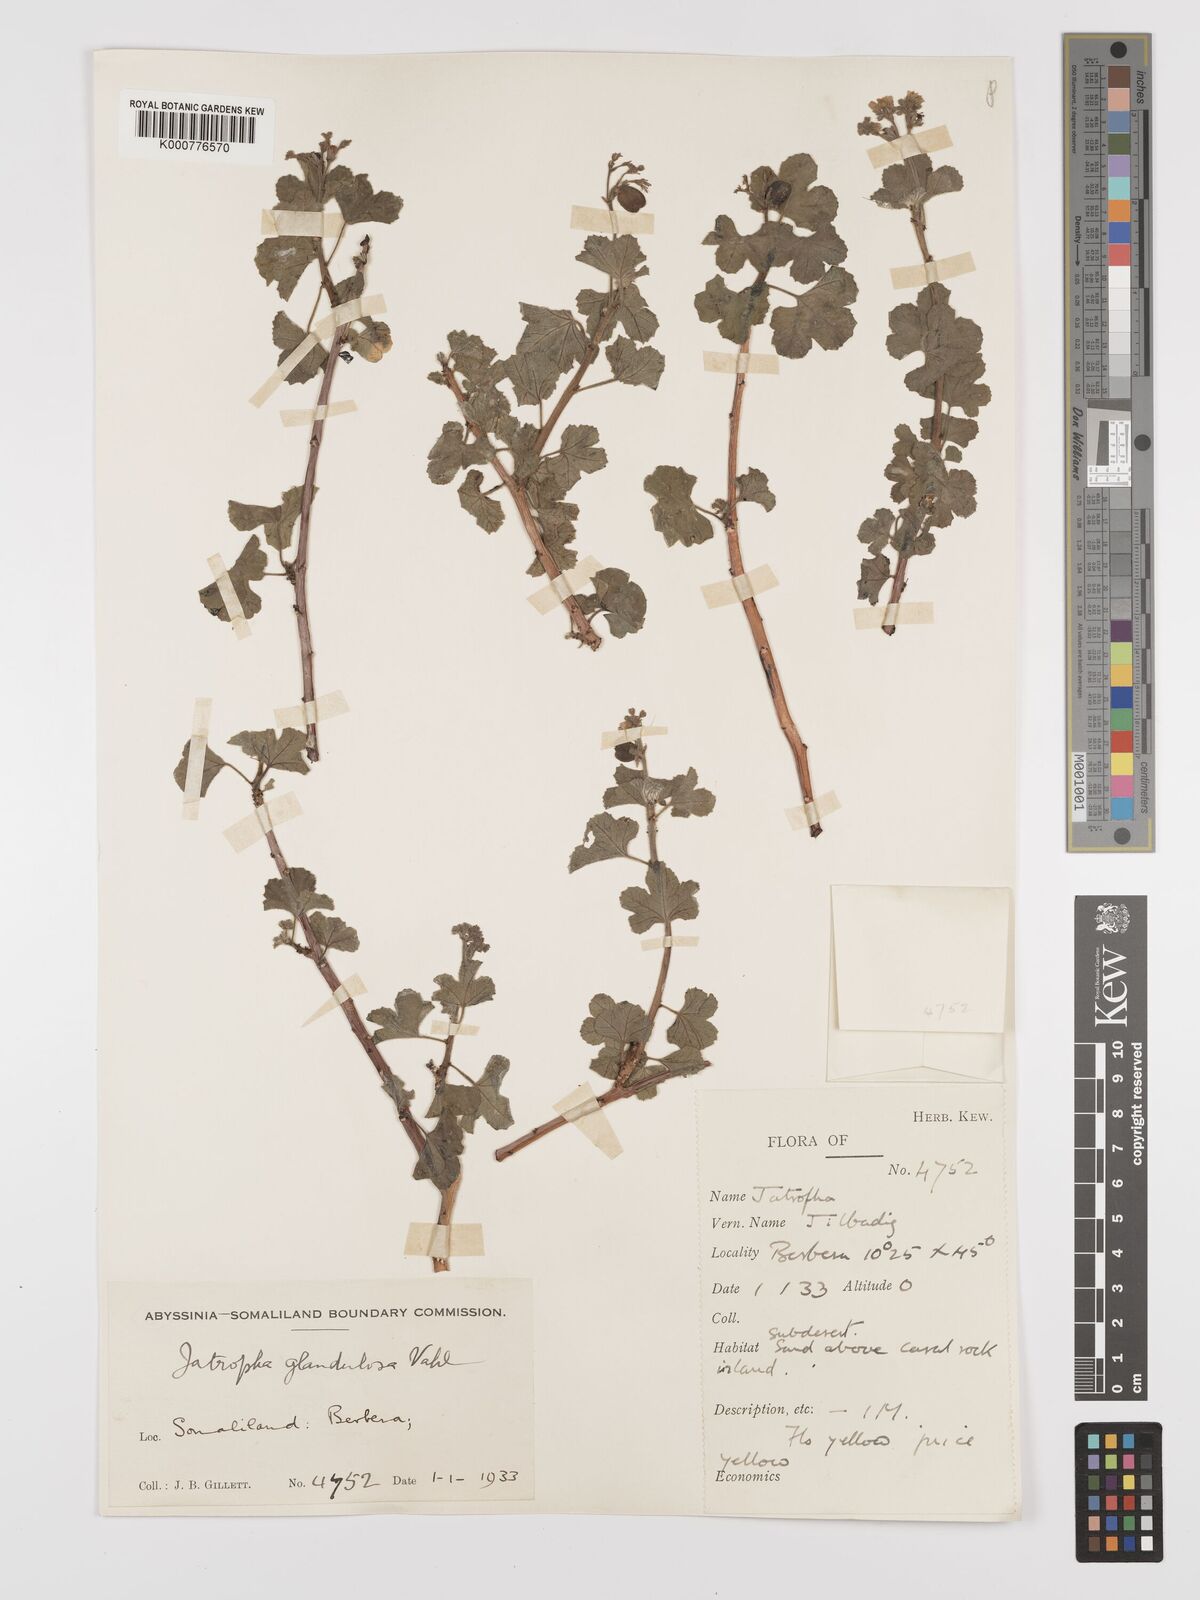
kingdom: Plantae
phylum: Tracheophyta
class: Magnoliopsida
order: Malpighiales
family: Euphorbiaceae
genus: Jatropha
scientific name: Jatropha pelargoniifolia
